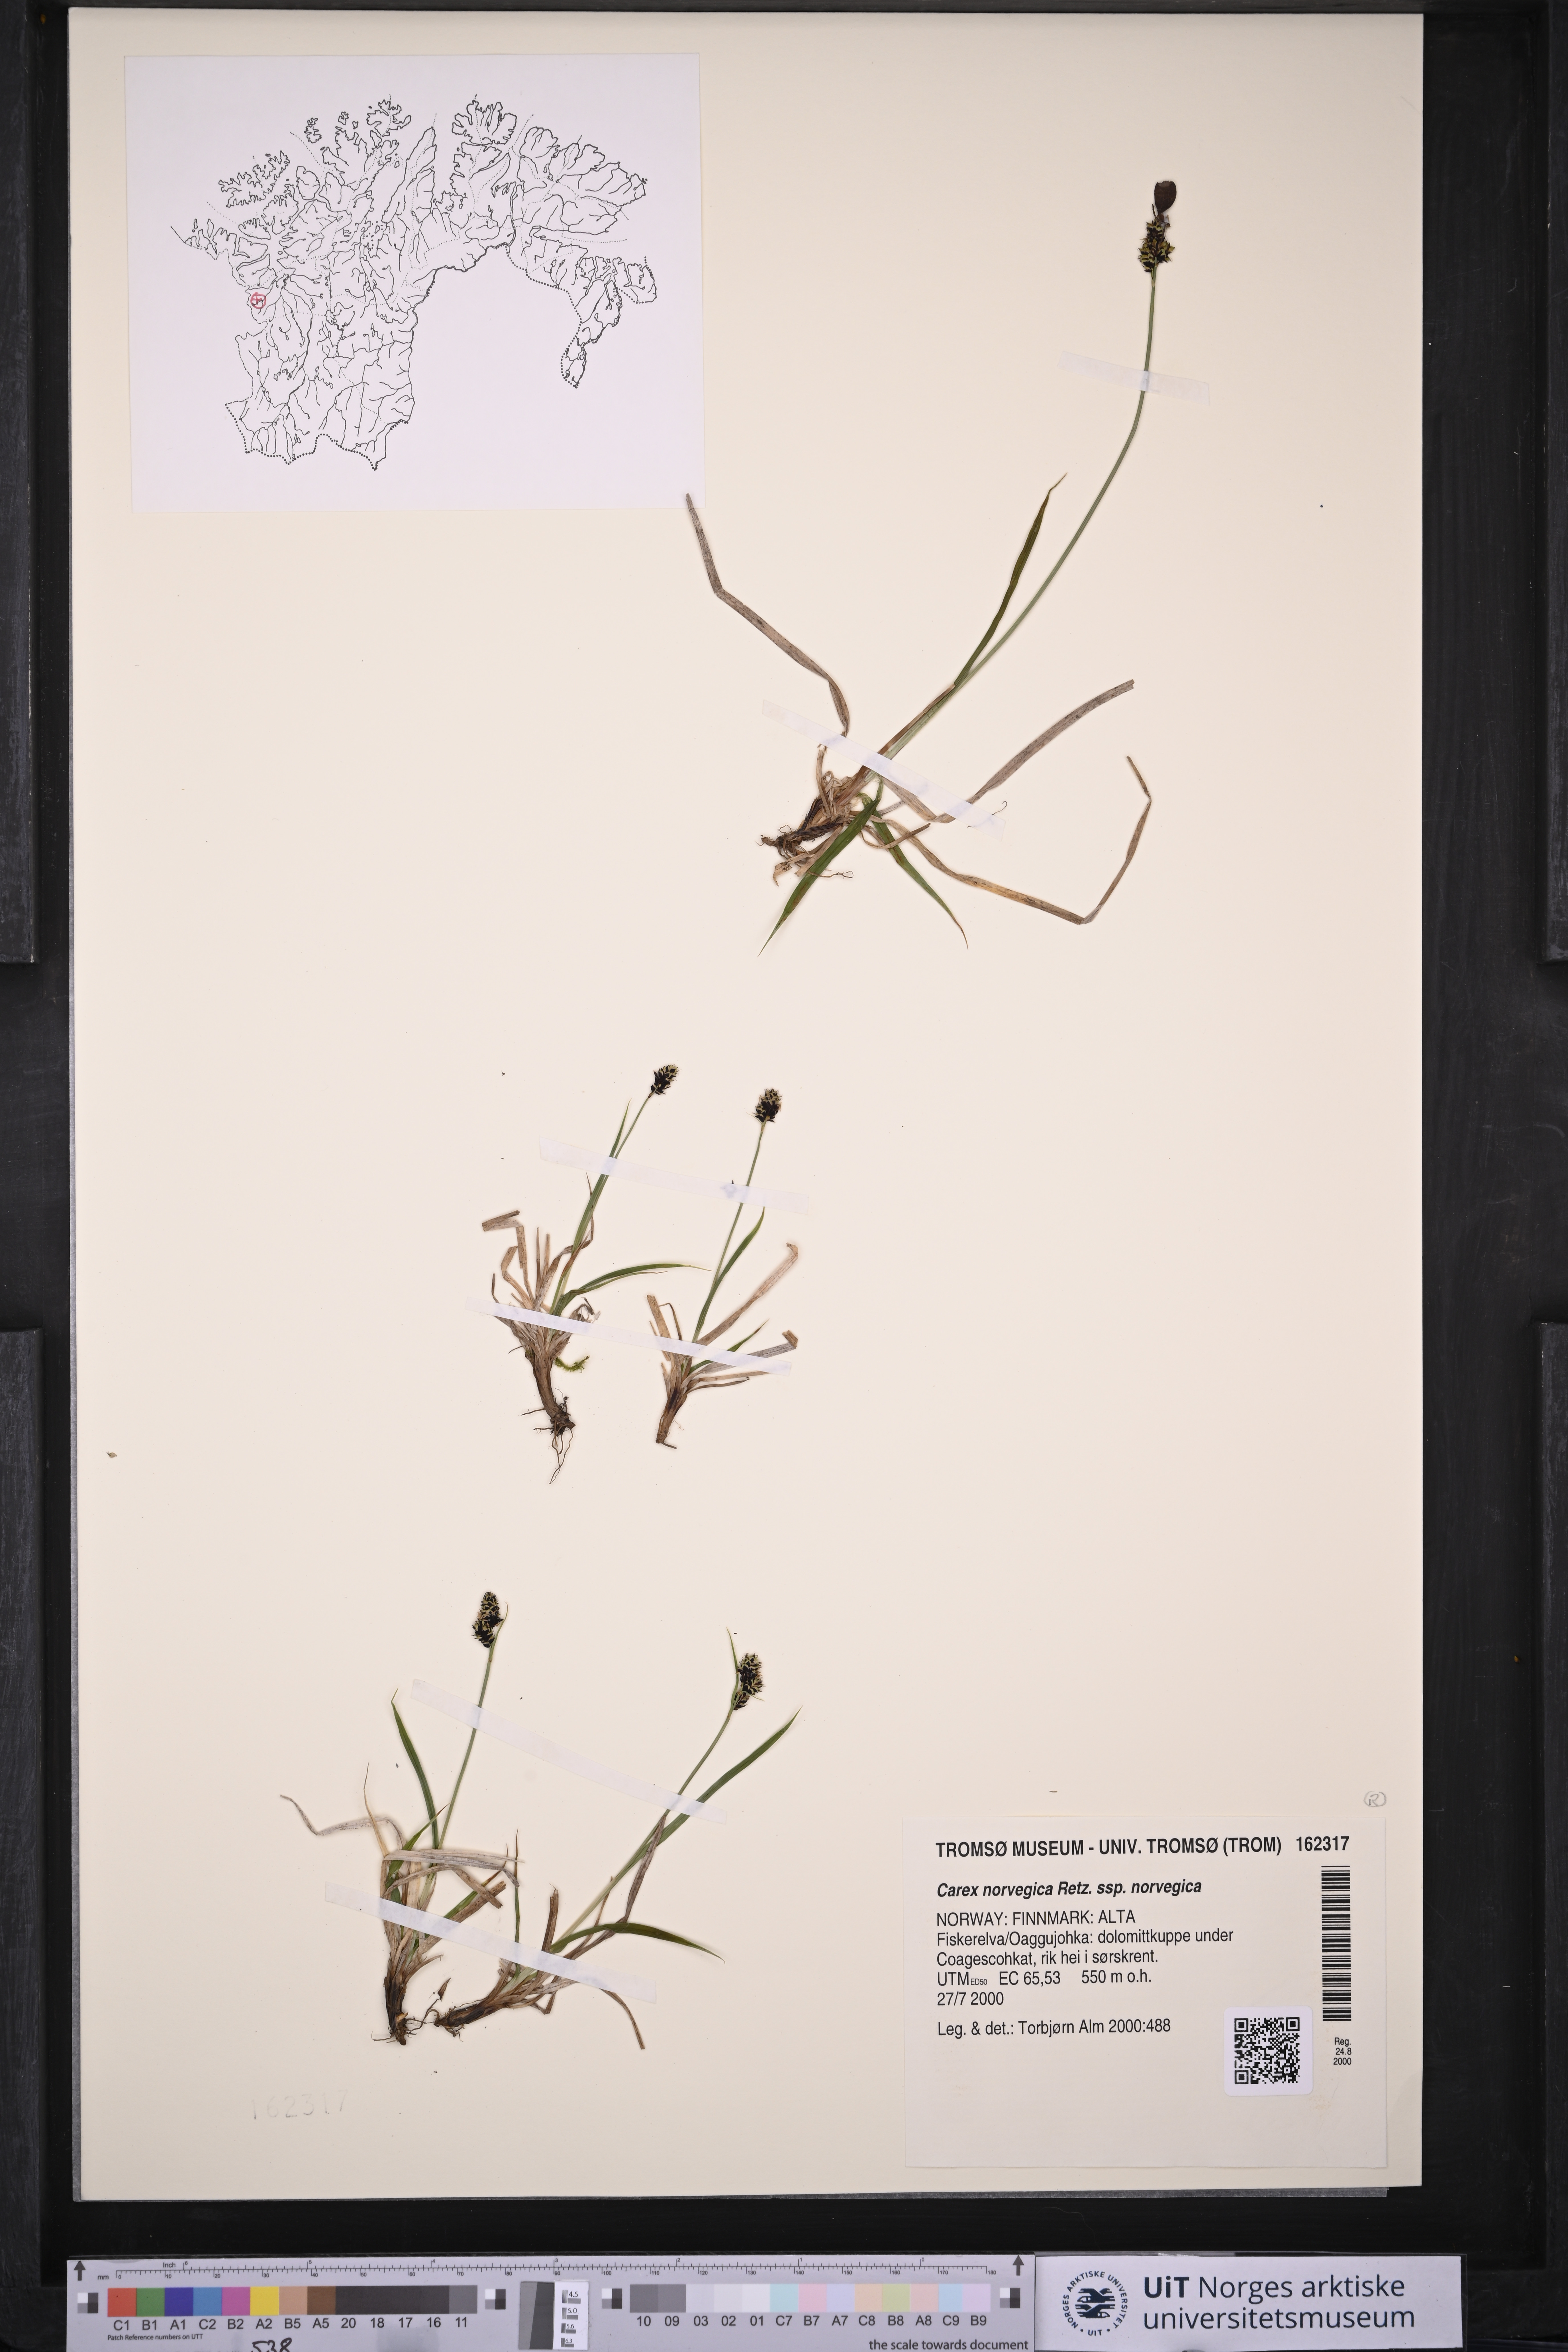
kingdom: Plantae
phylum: Tracheophyta
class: Liliopsida
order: Poales
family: Cyperaceae
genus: Carex
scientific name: Carex norvegica
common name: Close-headed alpine-sedge
